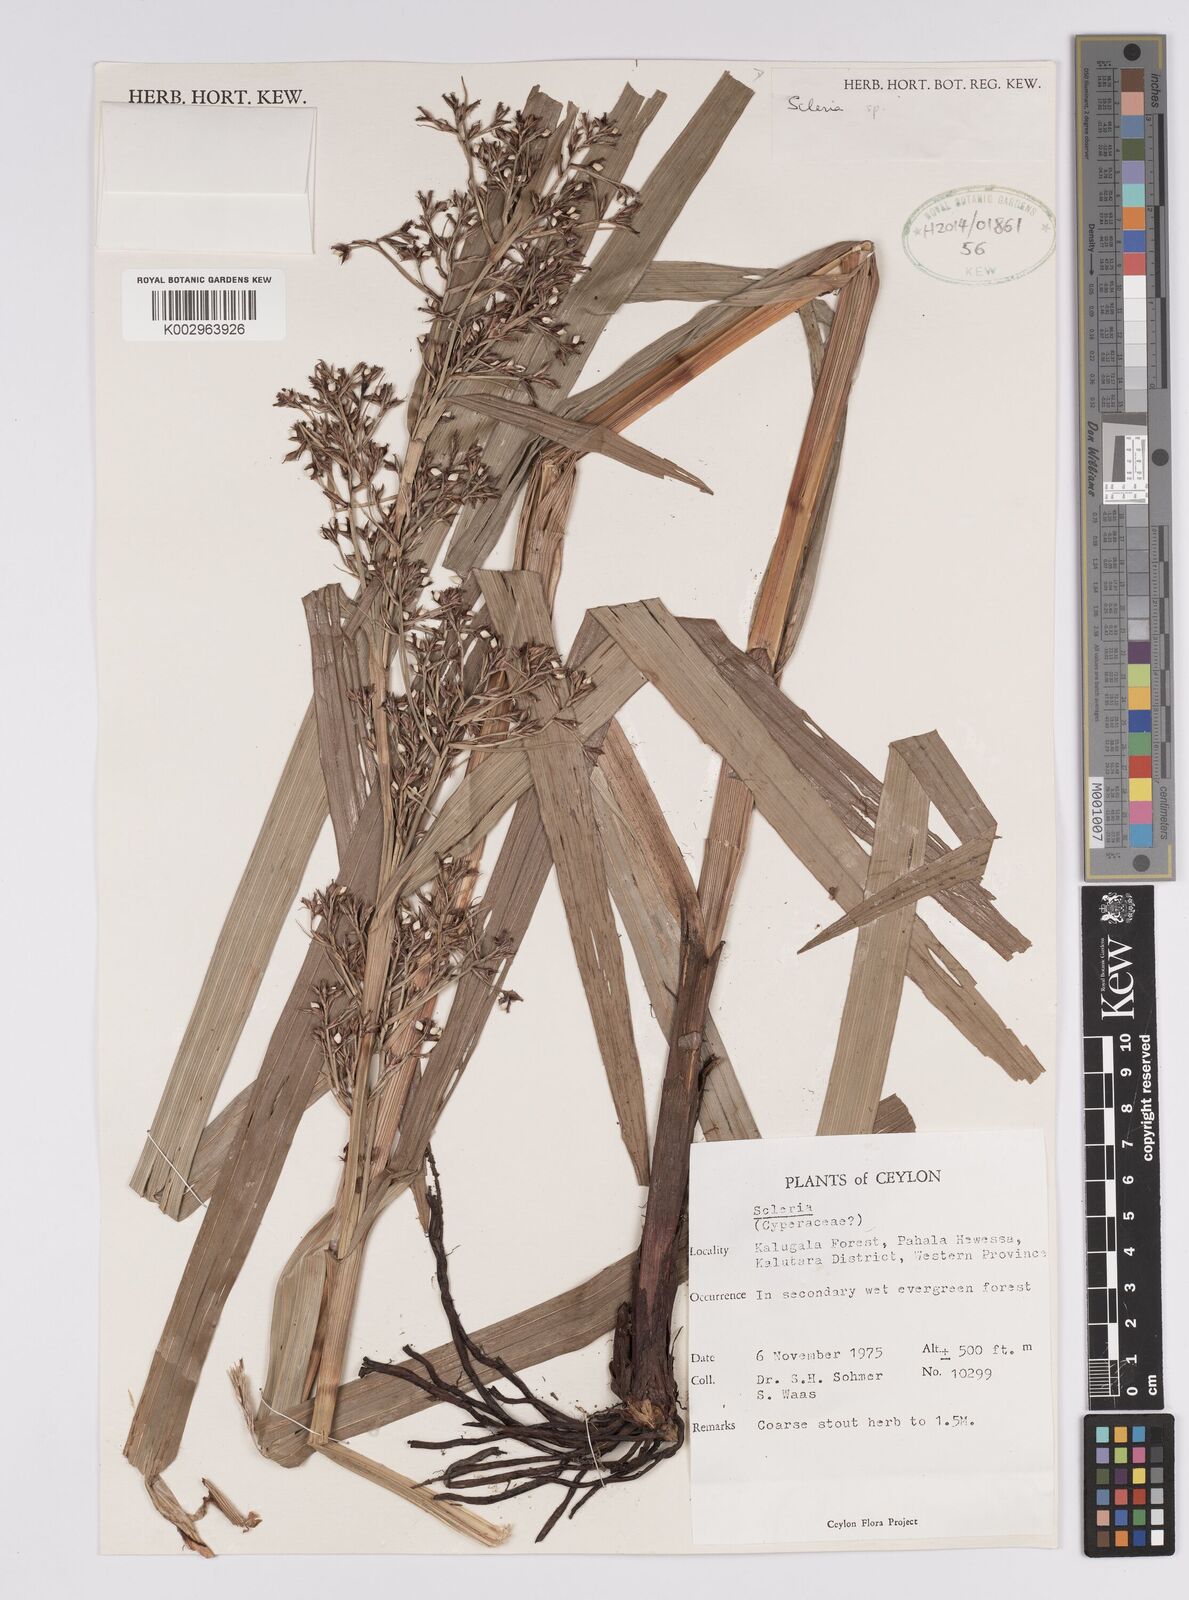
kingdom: Plantae
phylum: Tracheophyta
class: Liliopsida
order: Poales
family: Cyperaceae
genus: Scleria
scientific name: Scleria
